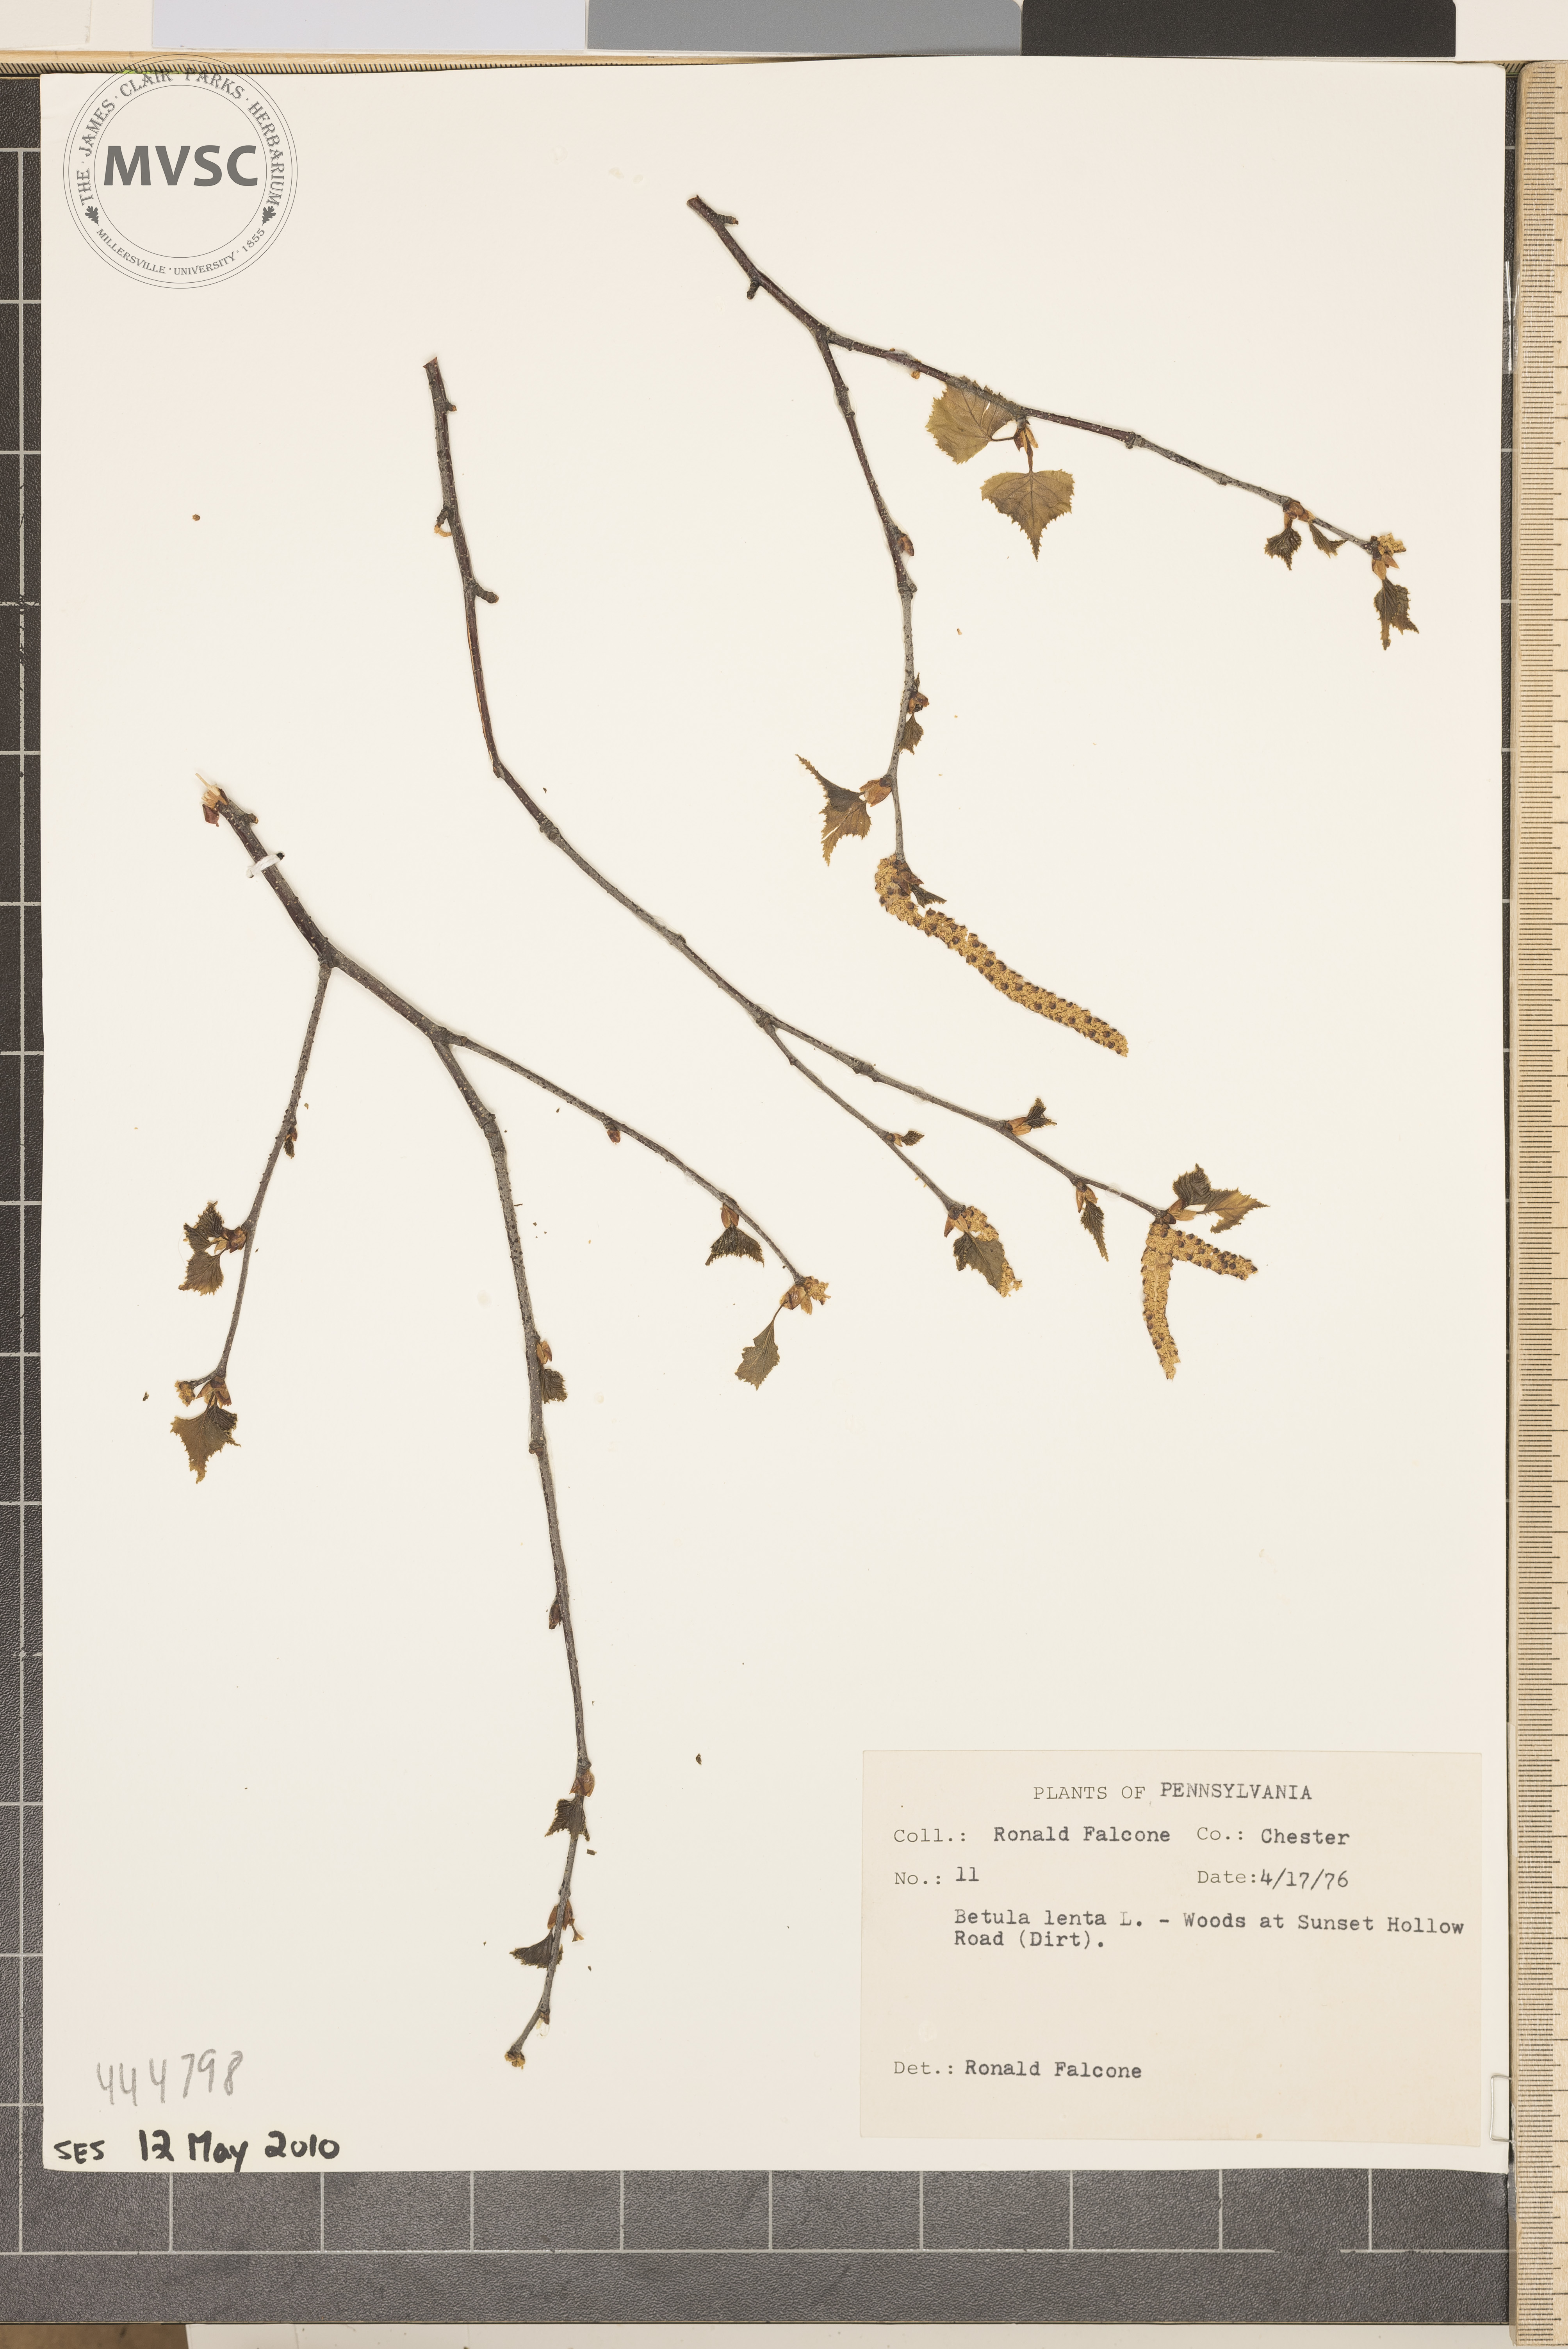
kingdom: Plantae
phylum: Tracheophyta
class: Magnoliopsida
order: Fagales
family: Betulaceae
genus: Betula
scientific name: Betula lenta
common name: Black birch
